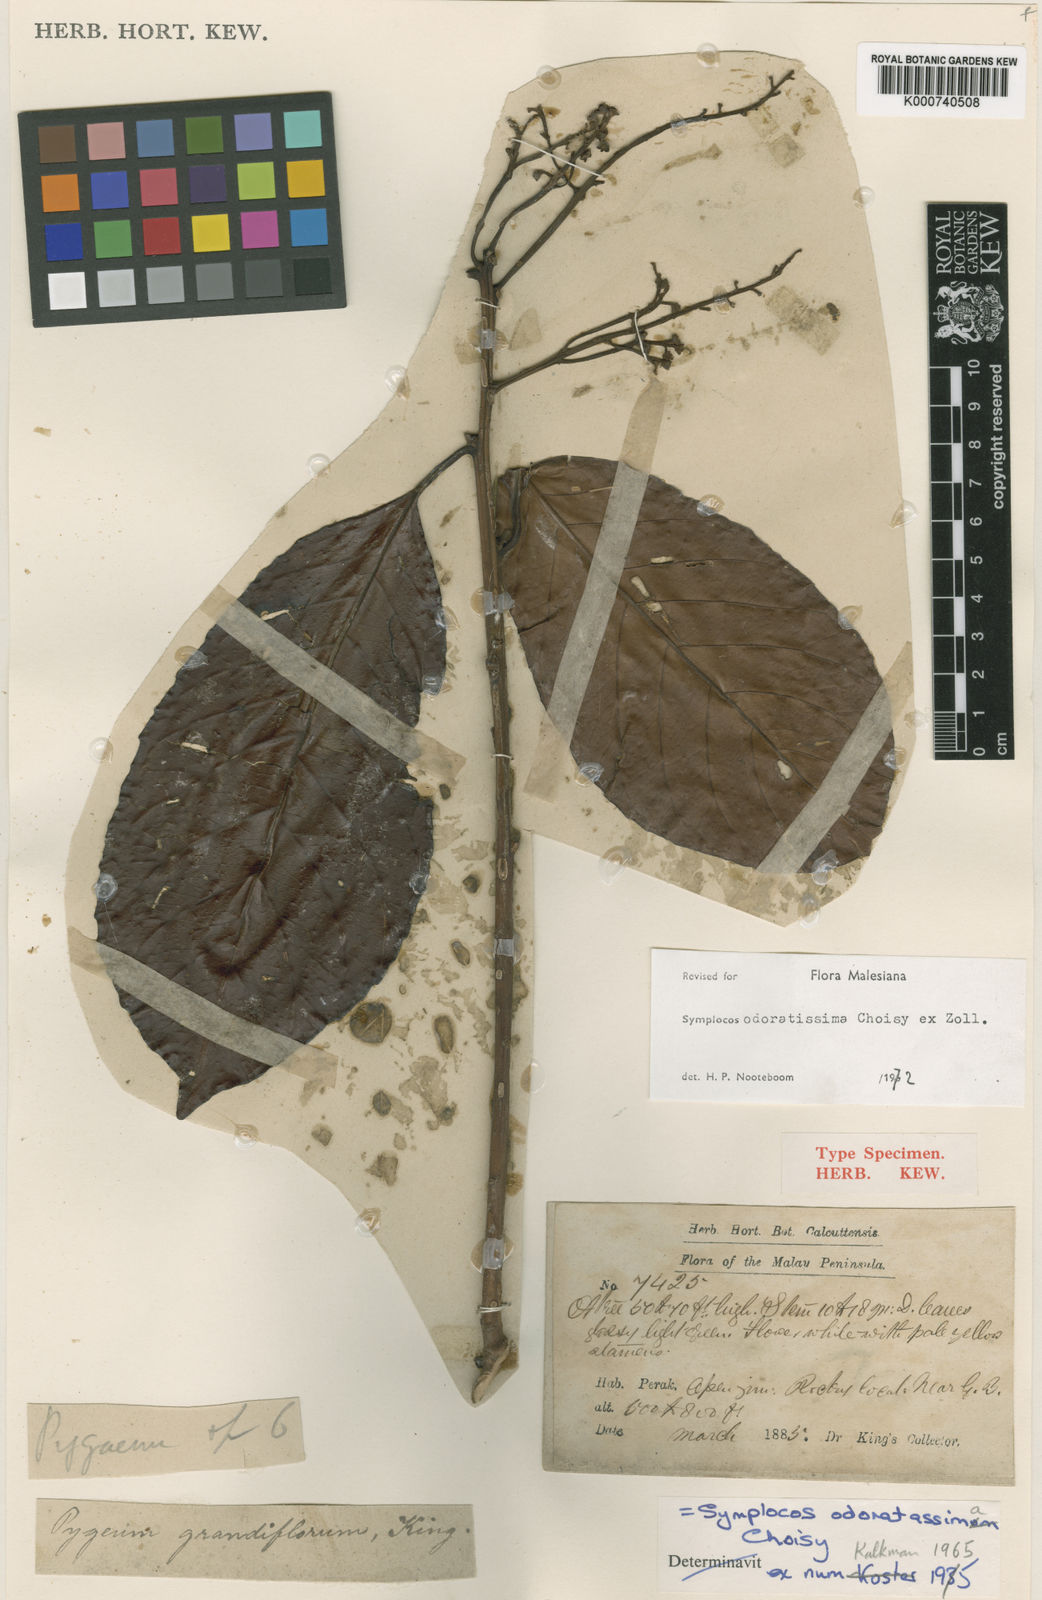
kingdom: Plantae
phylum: Tracheophyta
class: Magnoliopsida
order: Ericales
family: Symplocaceae
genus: Symplocos
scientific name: Symplocos odoratissima
